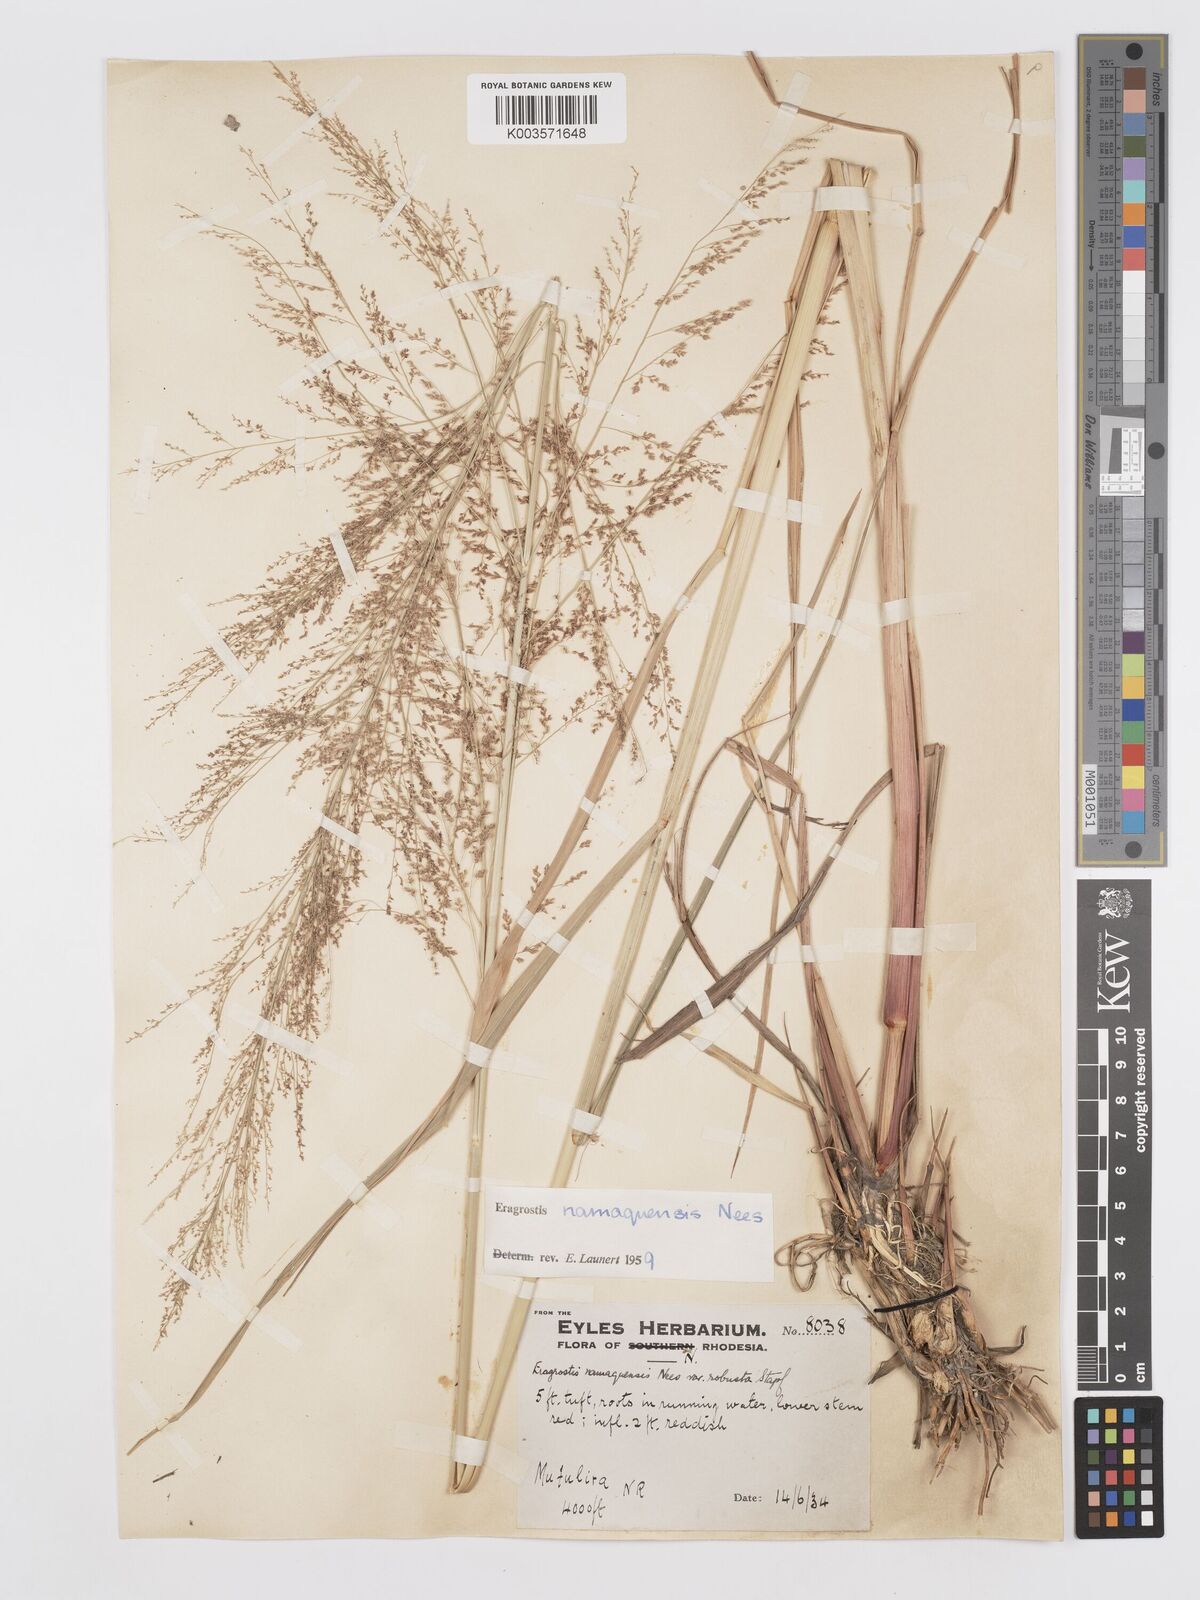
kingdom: Plantae
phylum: Tracheophyta
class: Liliopsida
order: Poales
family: Poaceae
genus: Eragrostis
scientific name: Eragrostis japonica
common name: Pond lovegrass
